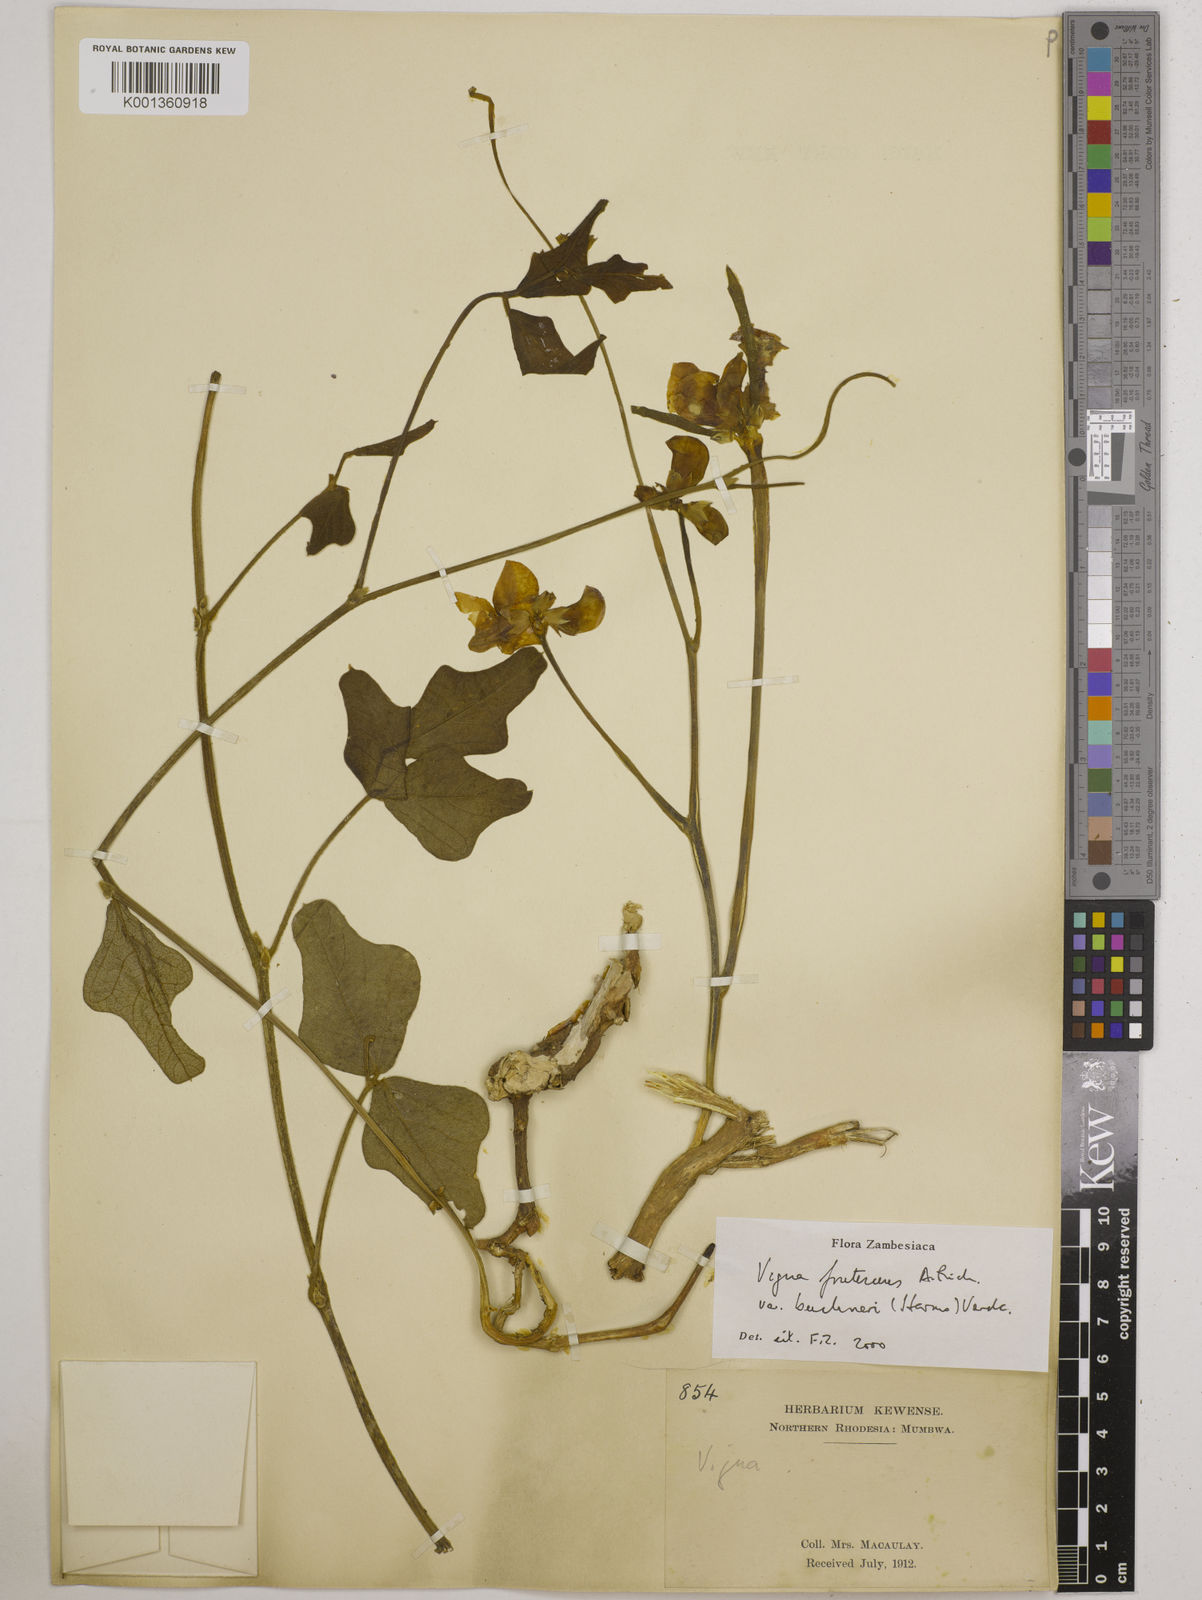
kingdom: Plantae
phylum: Tracheophyta
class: Magnoliopsida
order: Fabales
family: Fabaceae
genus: Vigna
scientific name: Vigna frutescens
